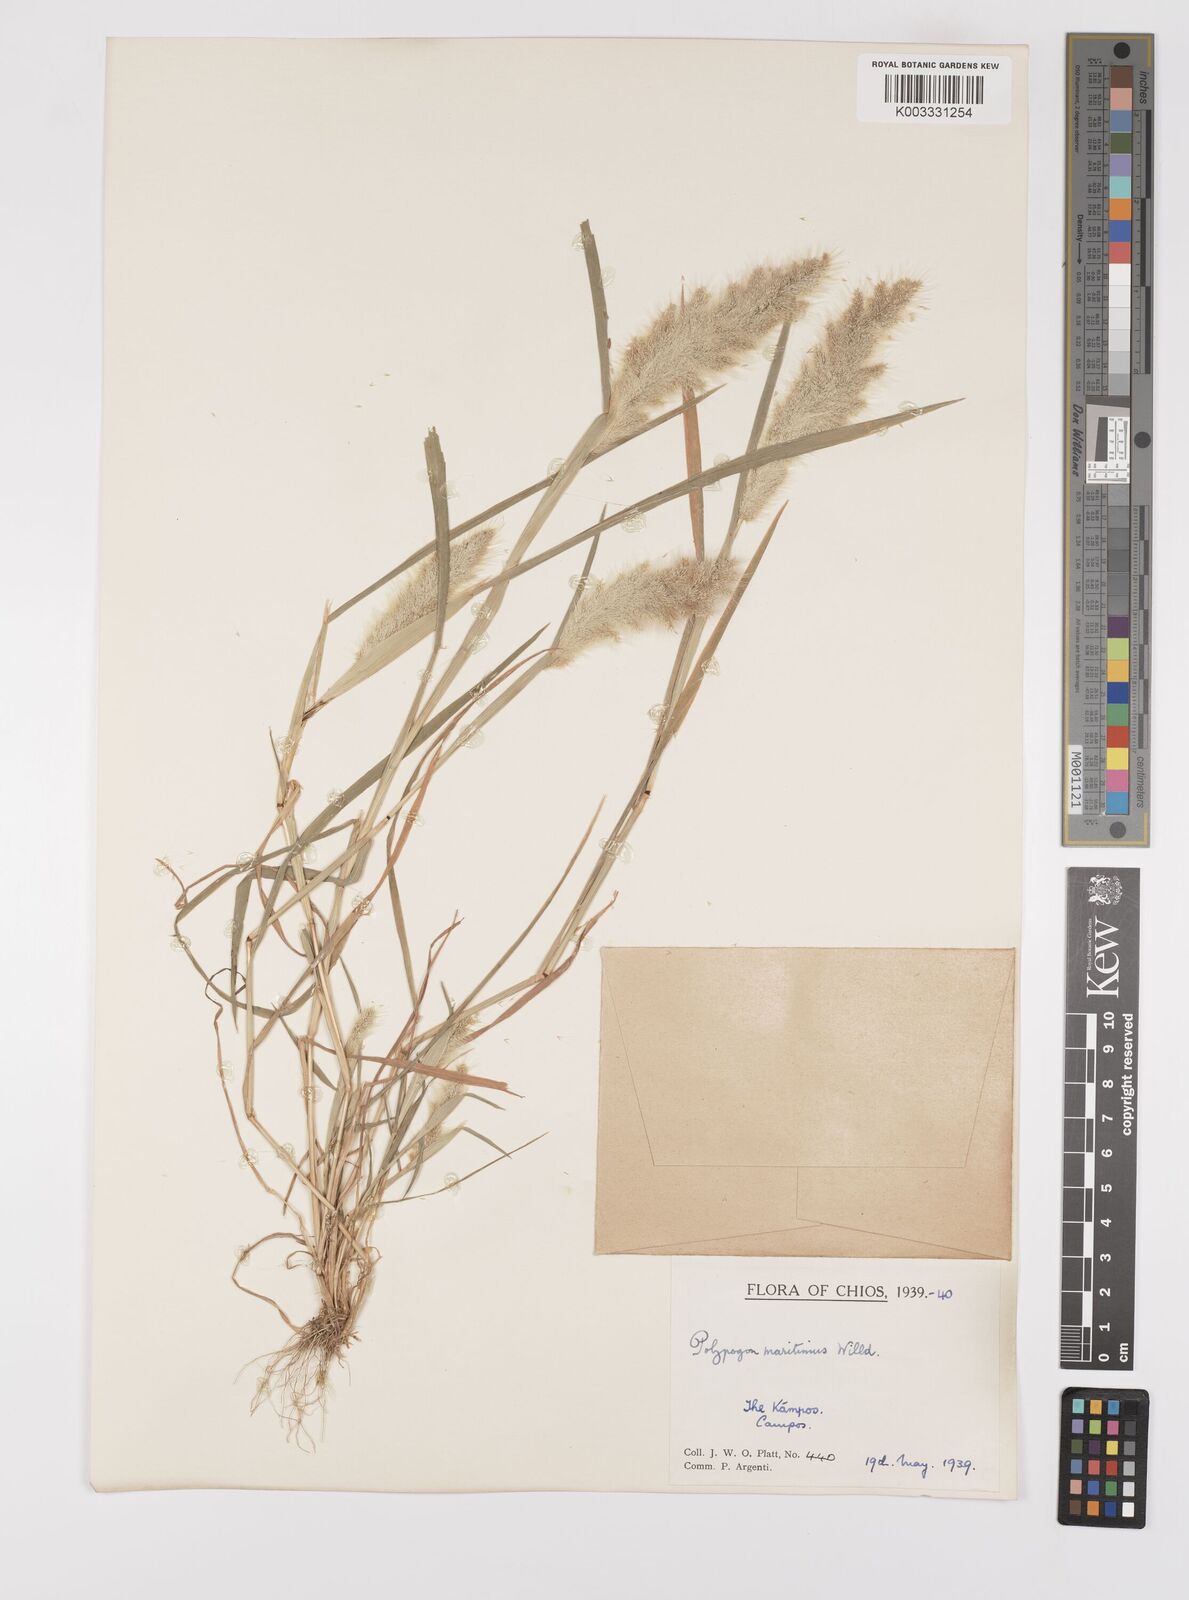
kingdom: Plantae
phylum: Tracheophyta
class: Liliopsida
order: Poales
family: Poaceae
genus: Polypogon
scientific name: Polypogon maritimus
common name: Mediterranean rabbitsfoot grass
